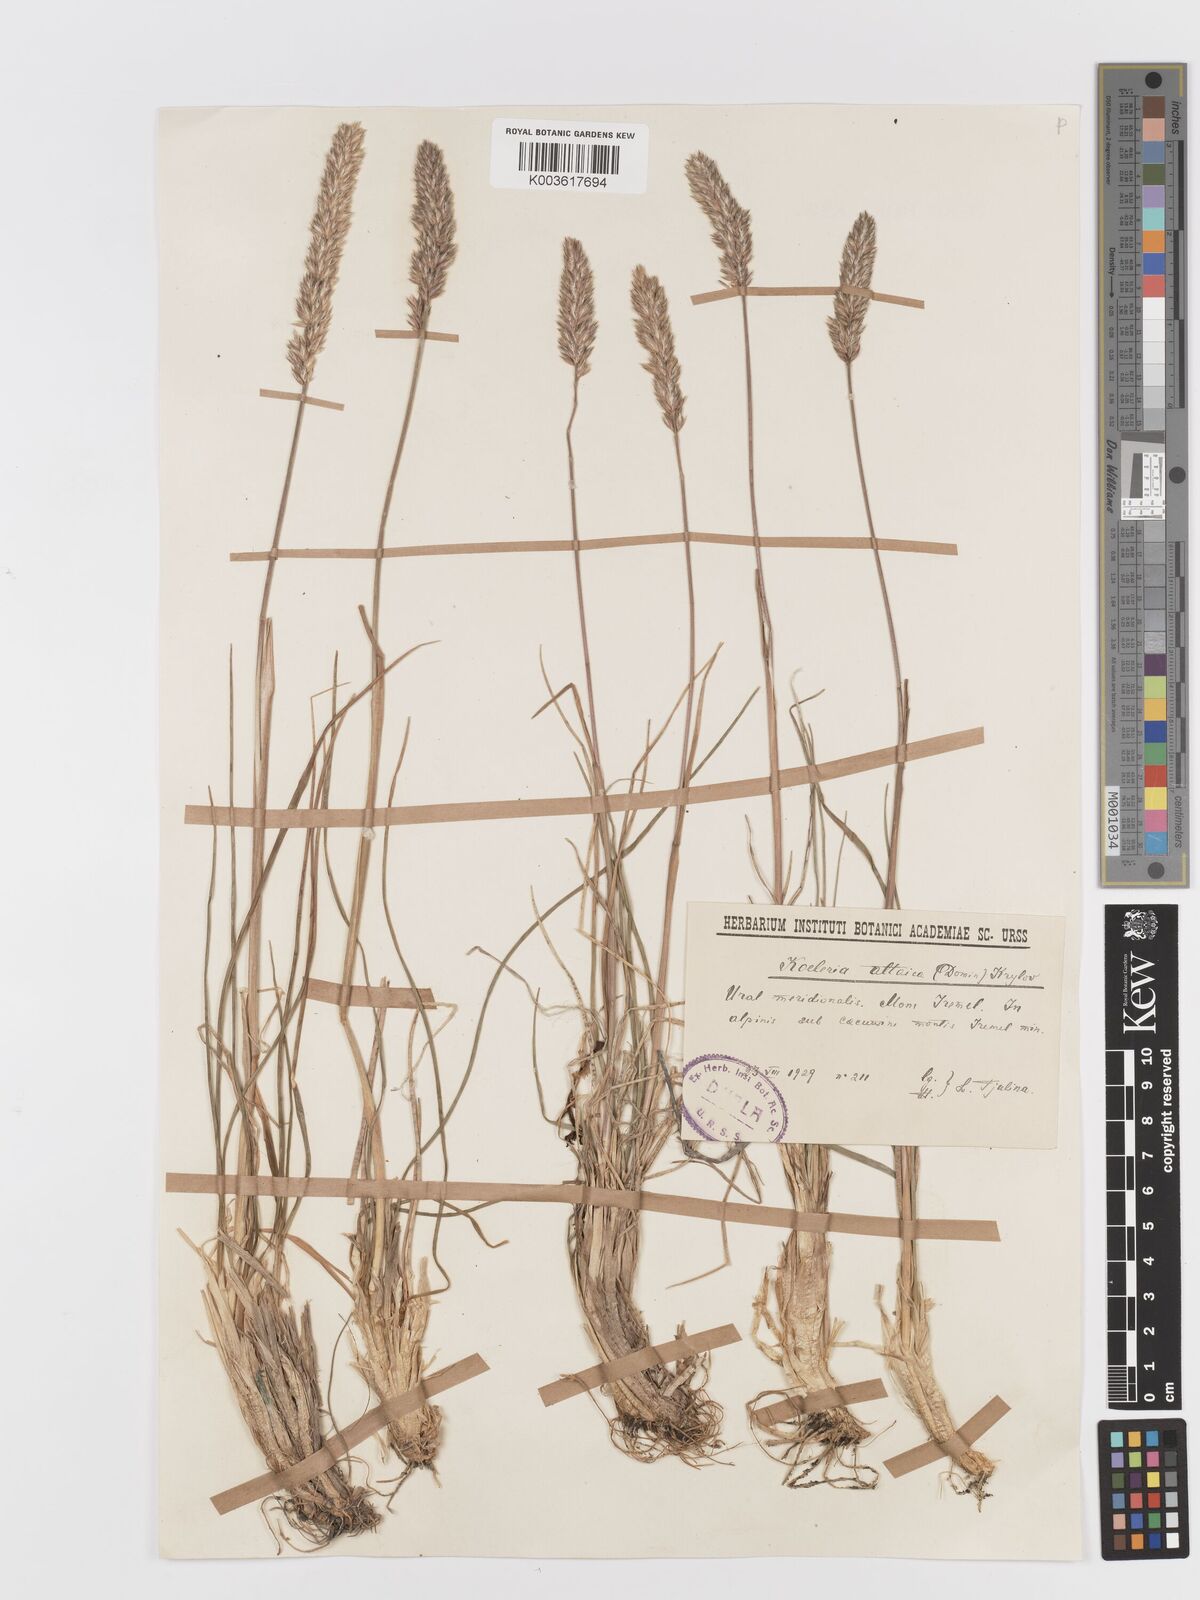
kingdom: Plantae
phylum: Tracheophyta
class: Liliopsida
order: Poales
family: Poaceae
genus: Koeleria
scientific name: Koeleria altaica
